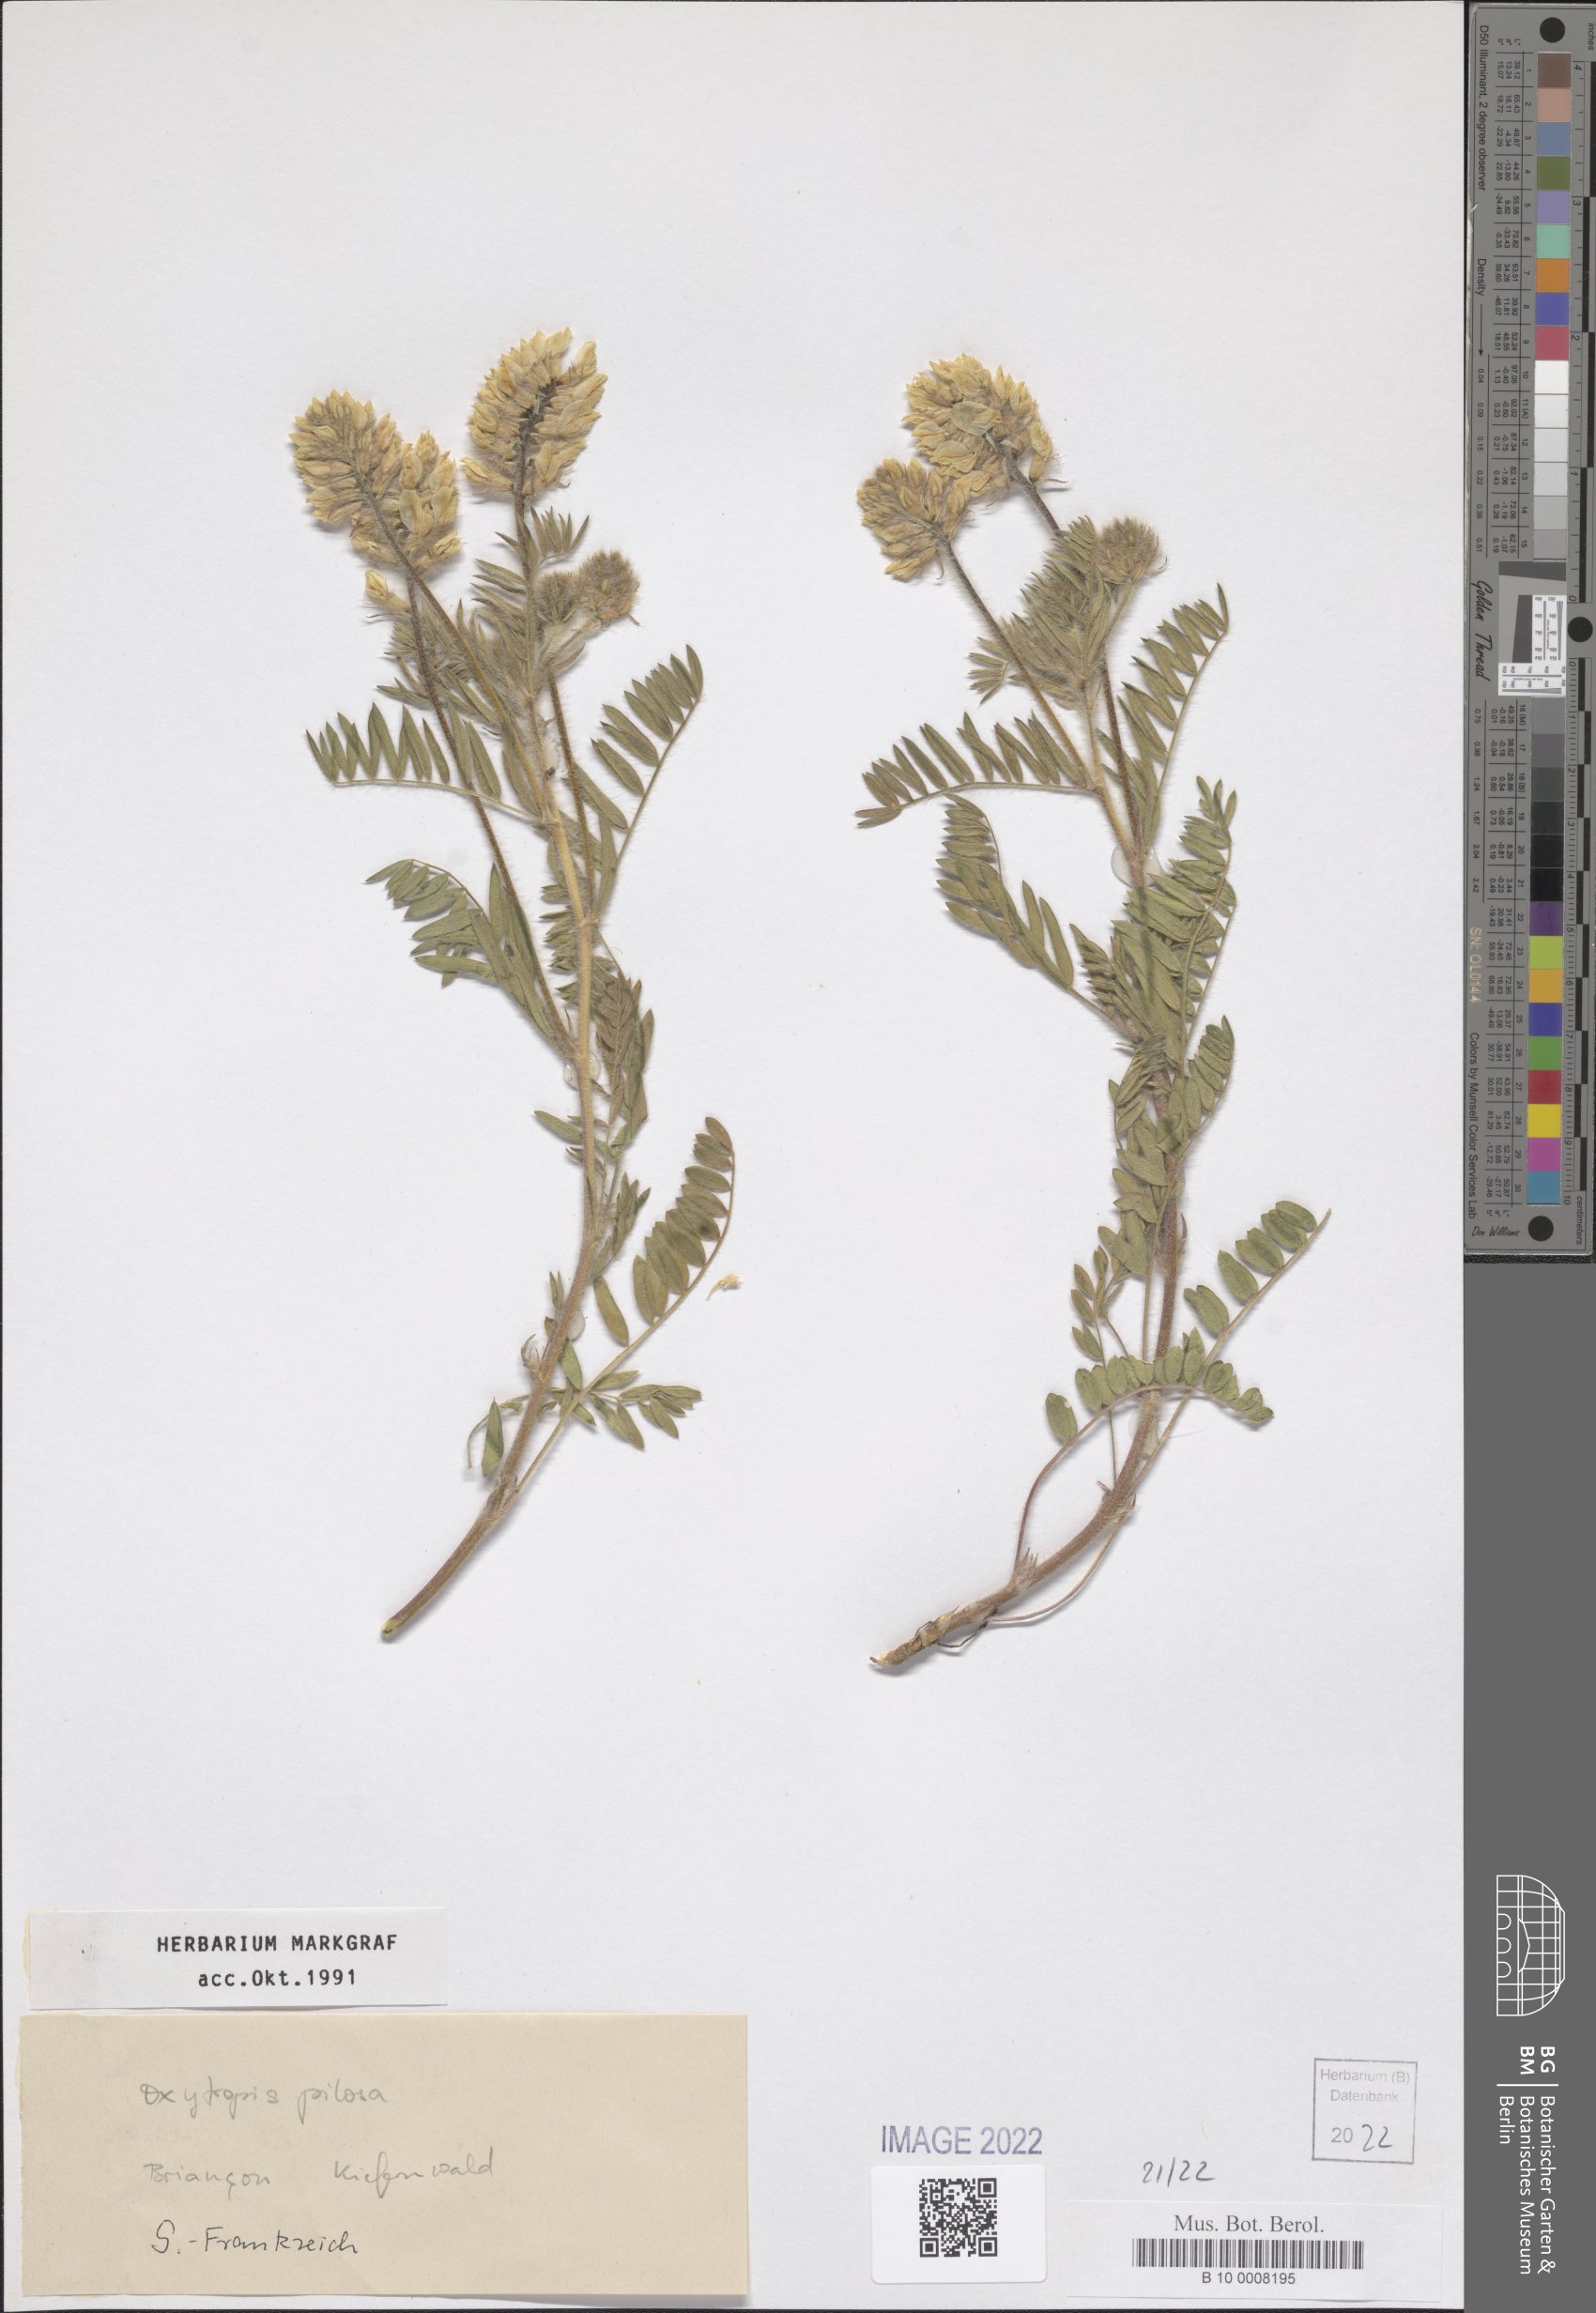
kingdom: Plantae
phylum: Tracheophyta
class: Magnoliopsida
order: Fabales
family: Fabaceae
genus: Oxytropis
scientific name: Oxytropis pilosa
